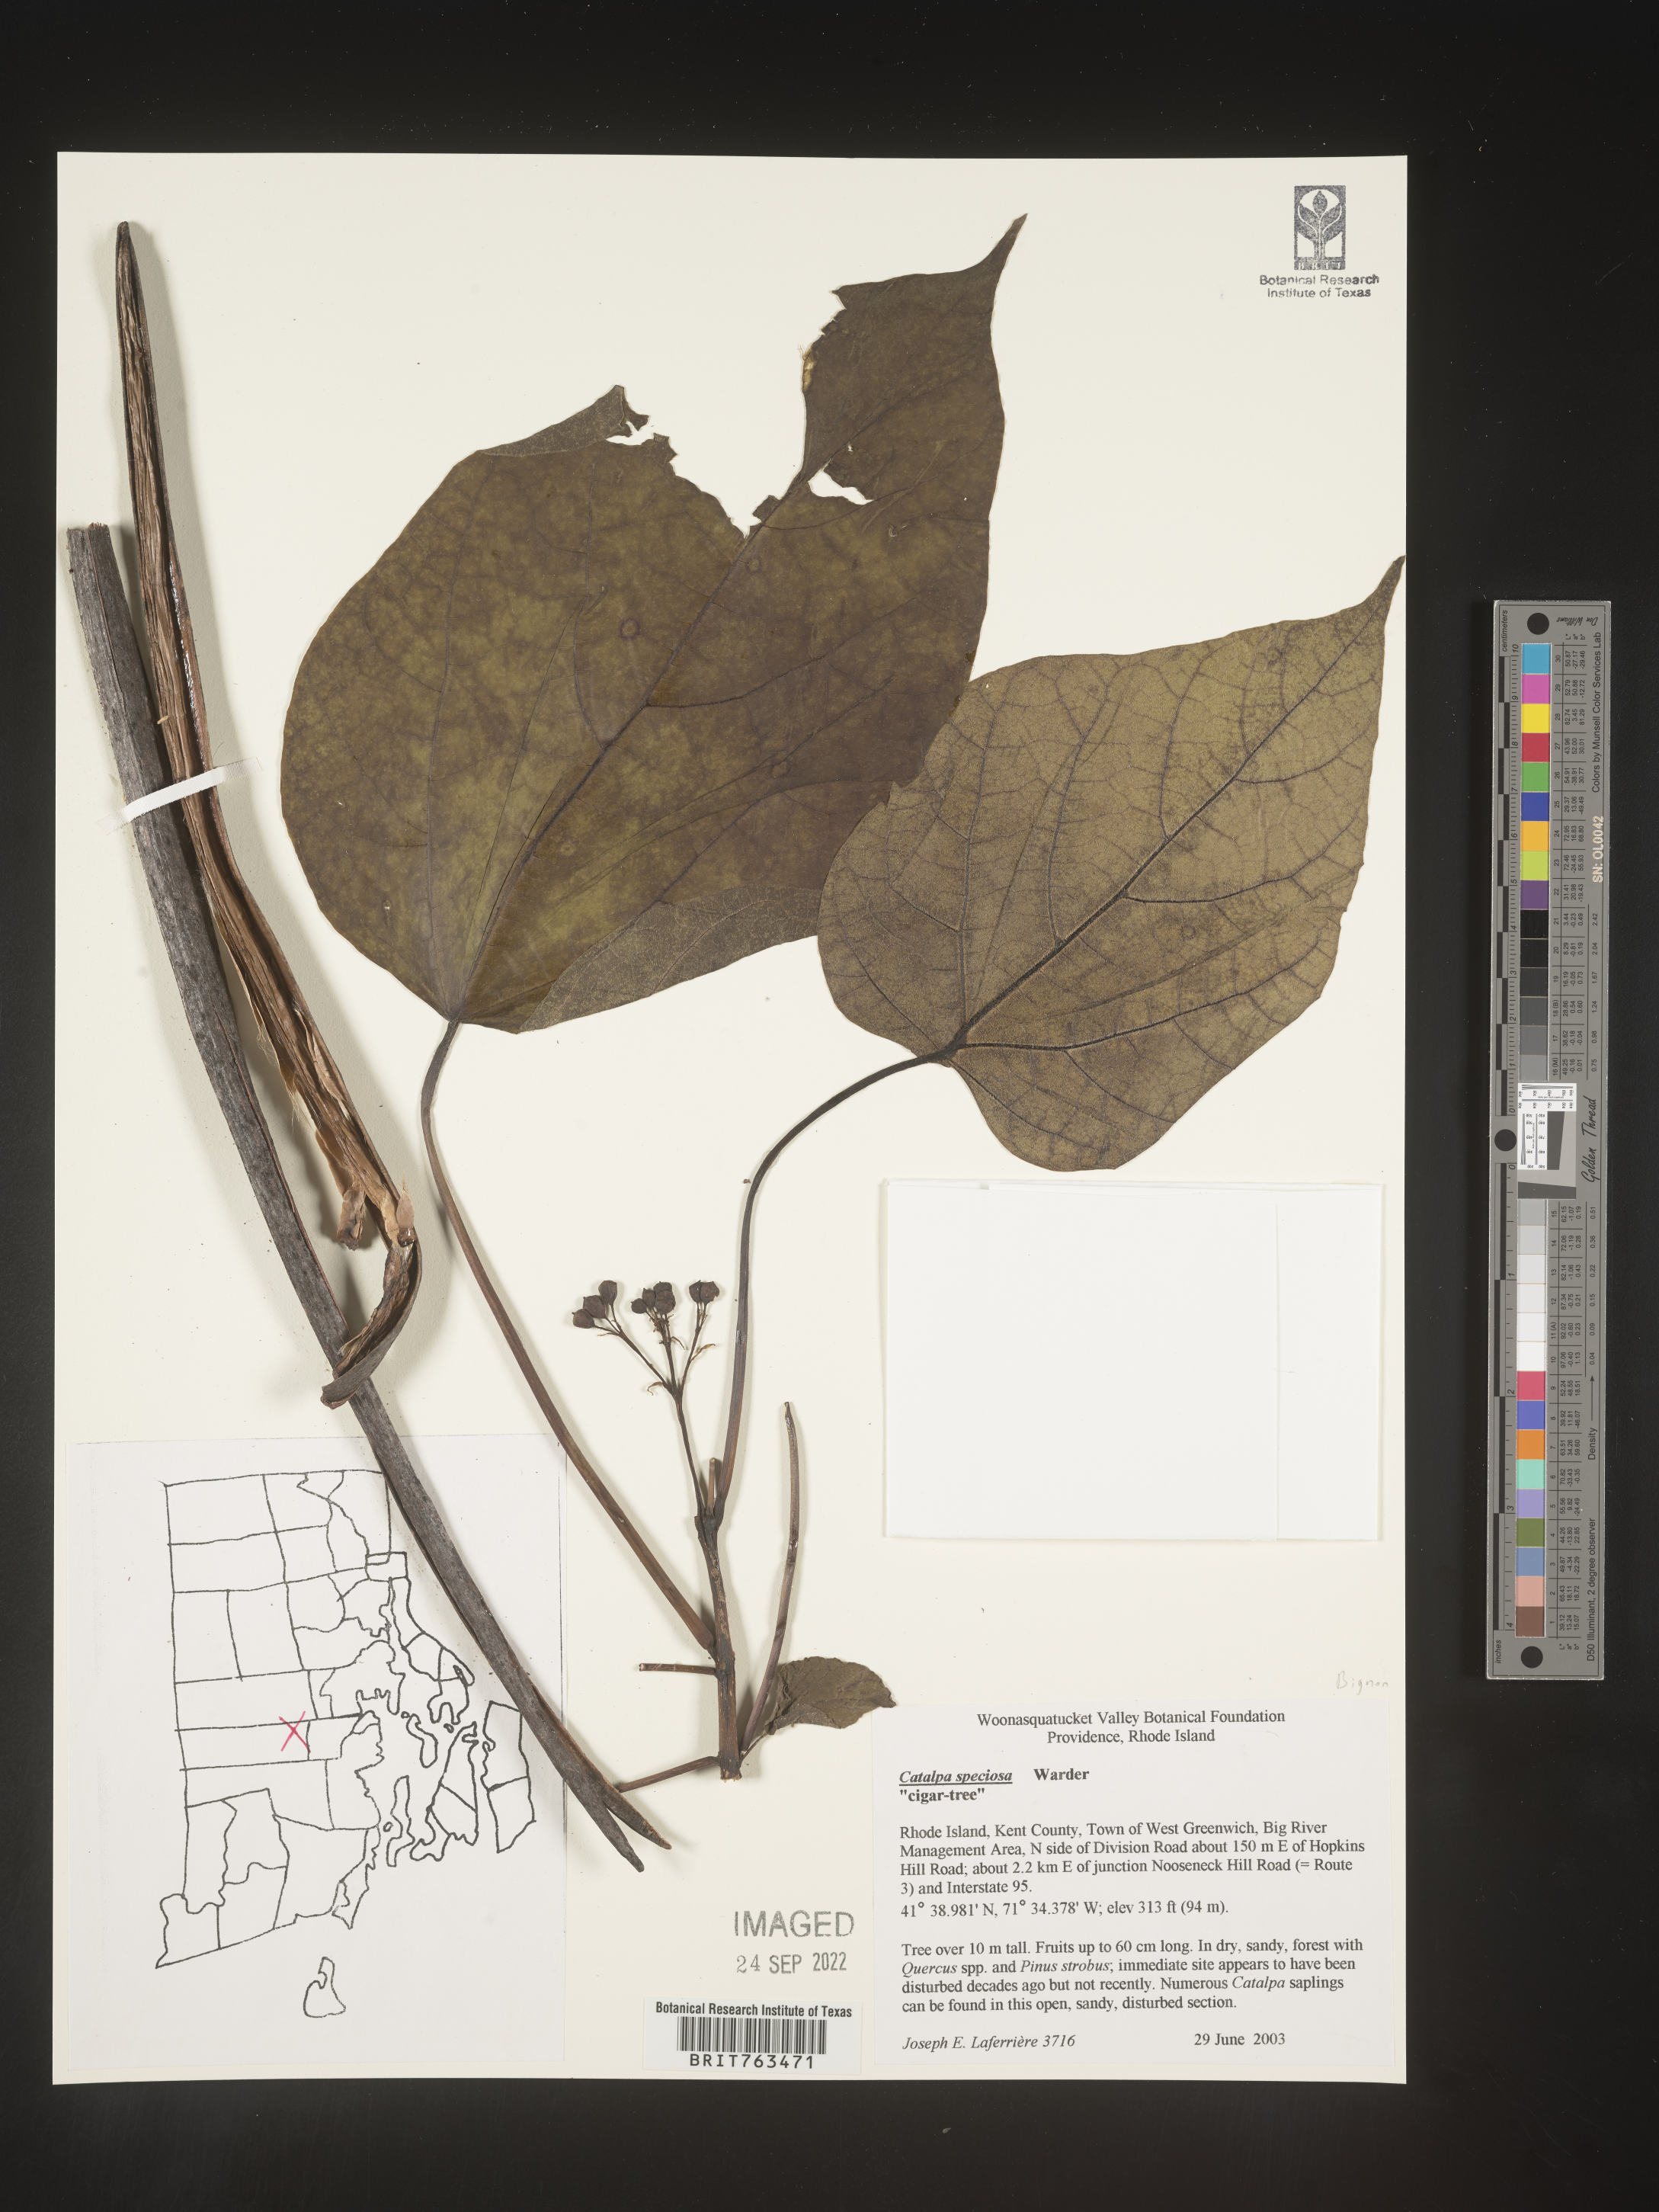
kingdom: Plantae
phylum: Tracheophyta
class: Magnoliopsida
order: Lamiales
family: Bignoniaceae
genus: Catalpa
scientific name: Catalpa speciosa
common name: Northern catalpa
